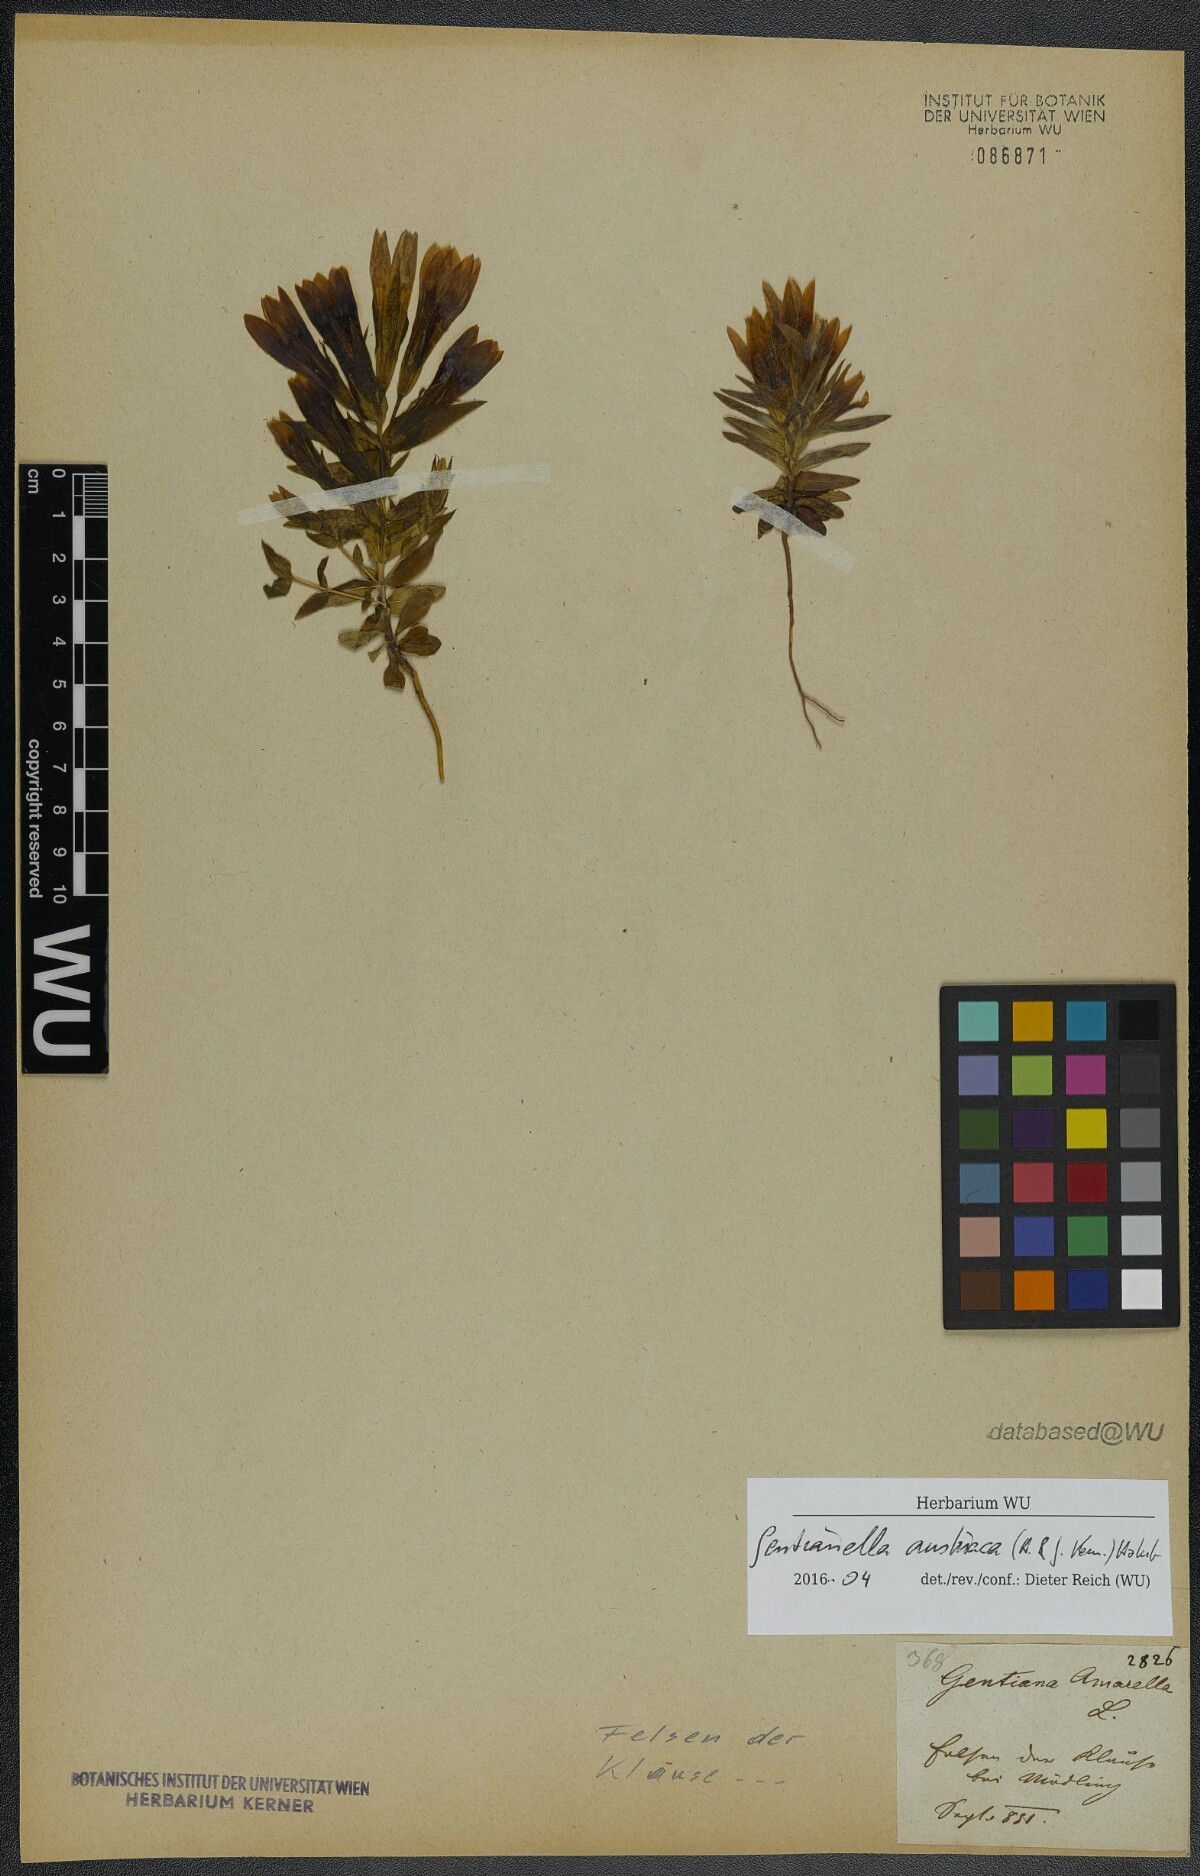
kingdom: Plantae
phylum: Tracheophyta
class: Magnoliopsida
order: Gentianales
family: Gentianaceae
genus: Gentianella
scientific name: Gentianella austriaca
